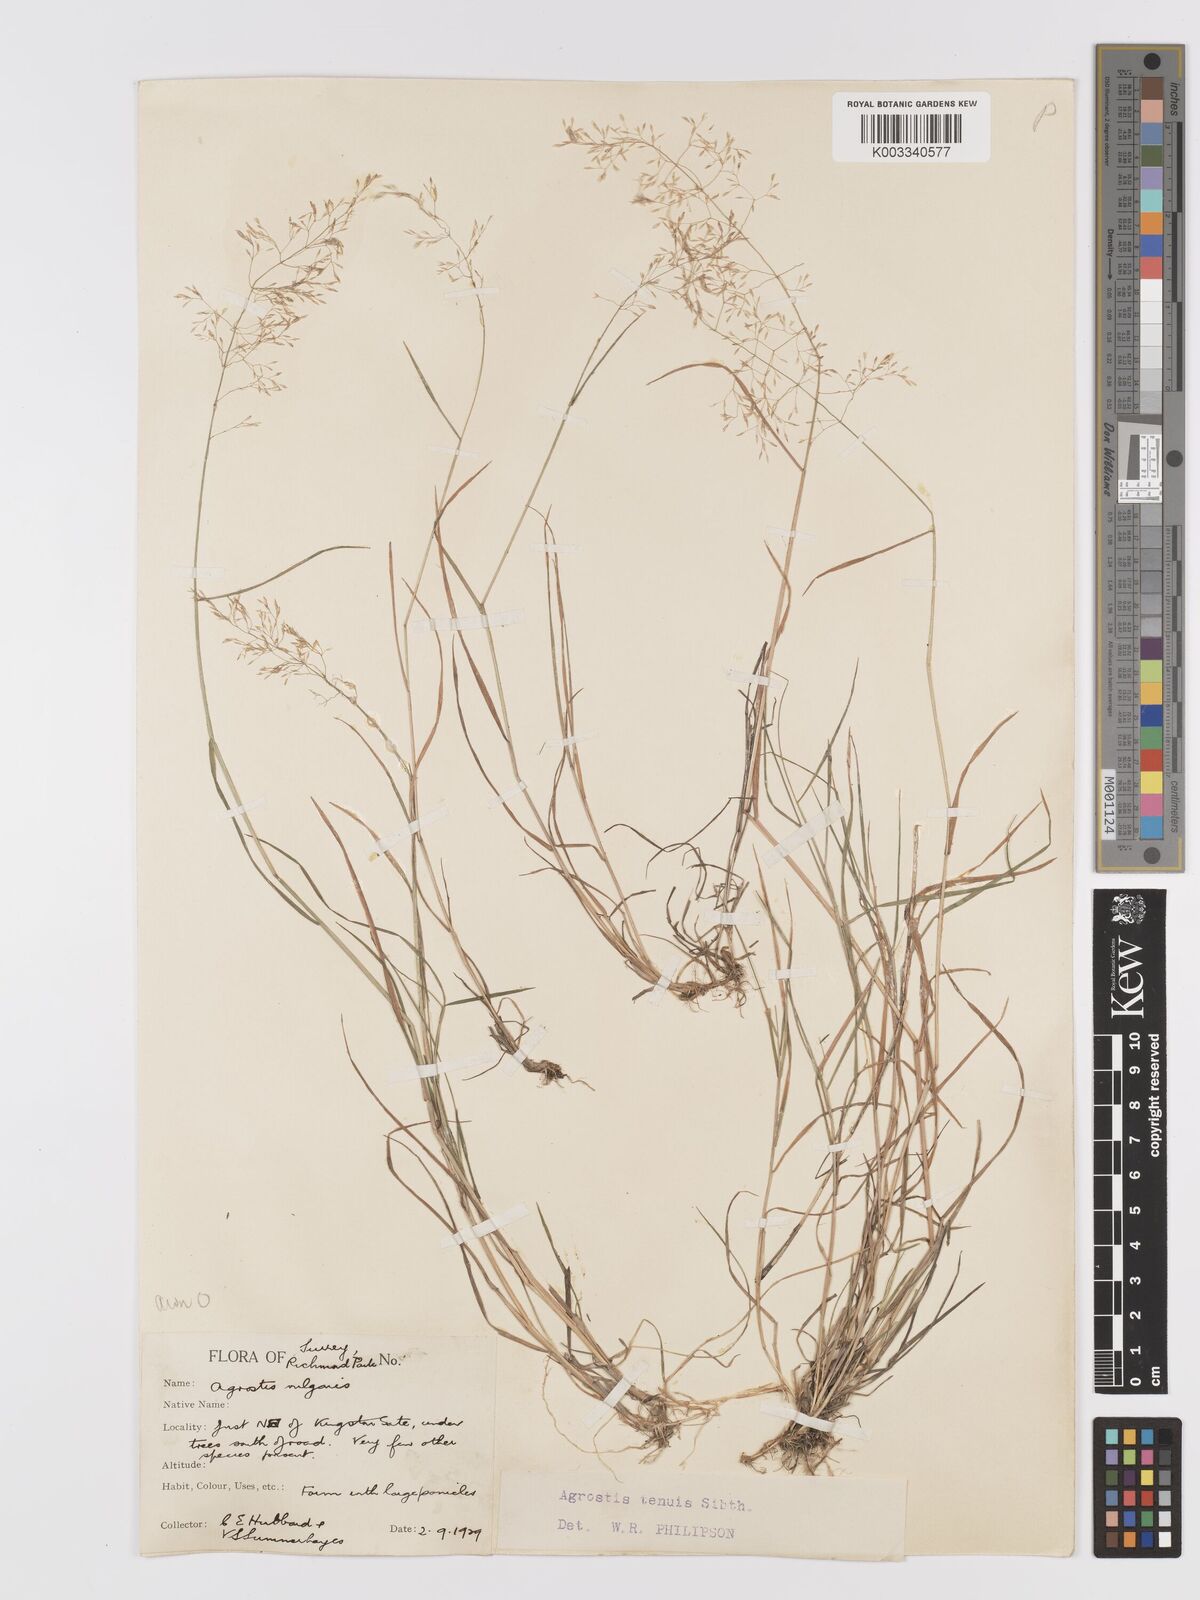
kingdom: Plantae
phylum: Tracheophyta
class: Liliopsida
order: Poales
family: Poaceae
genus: Agrostis
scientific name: Agrostis capillaris
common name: Colonial bentgrass
